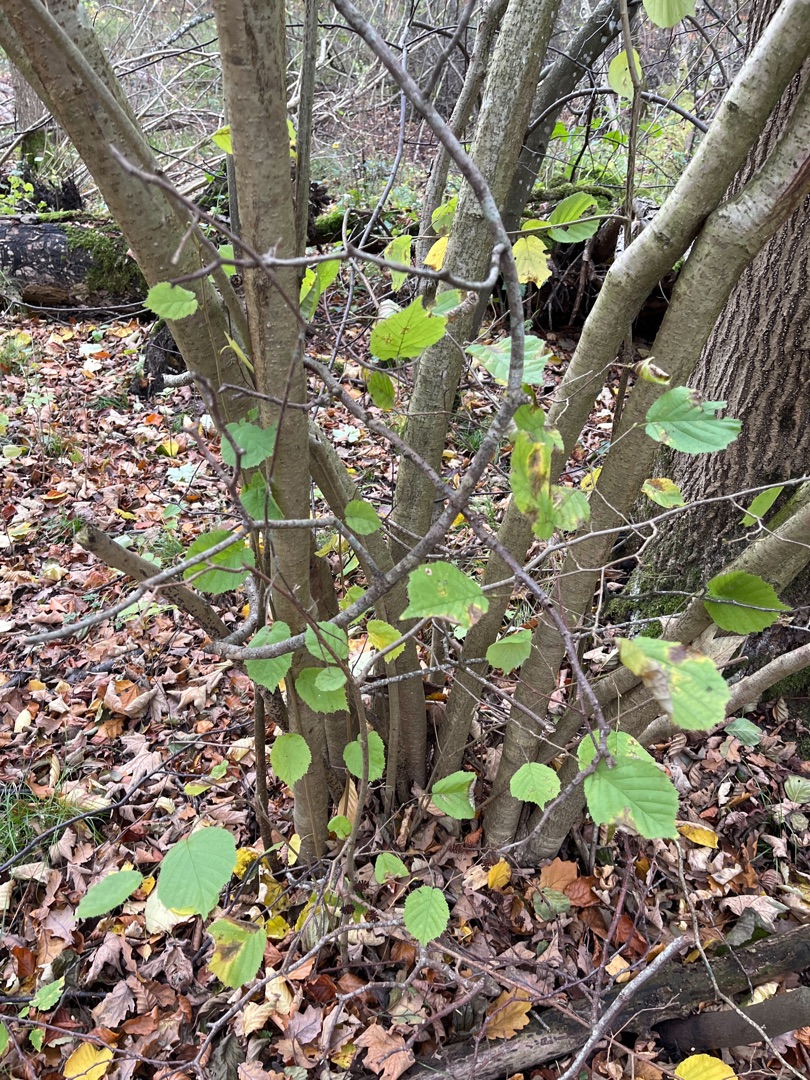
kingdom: Plantae
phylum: Tracheophyta
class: Magnoliopsida
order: Fagales
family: Betulaceae
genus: Corylus
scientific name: Corylus avellana
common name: Hassel
